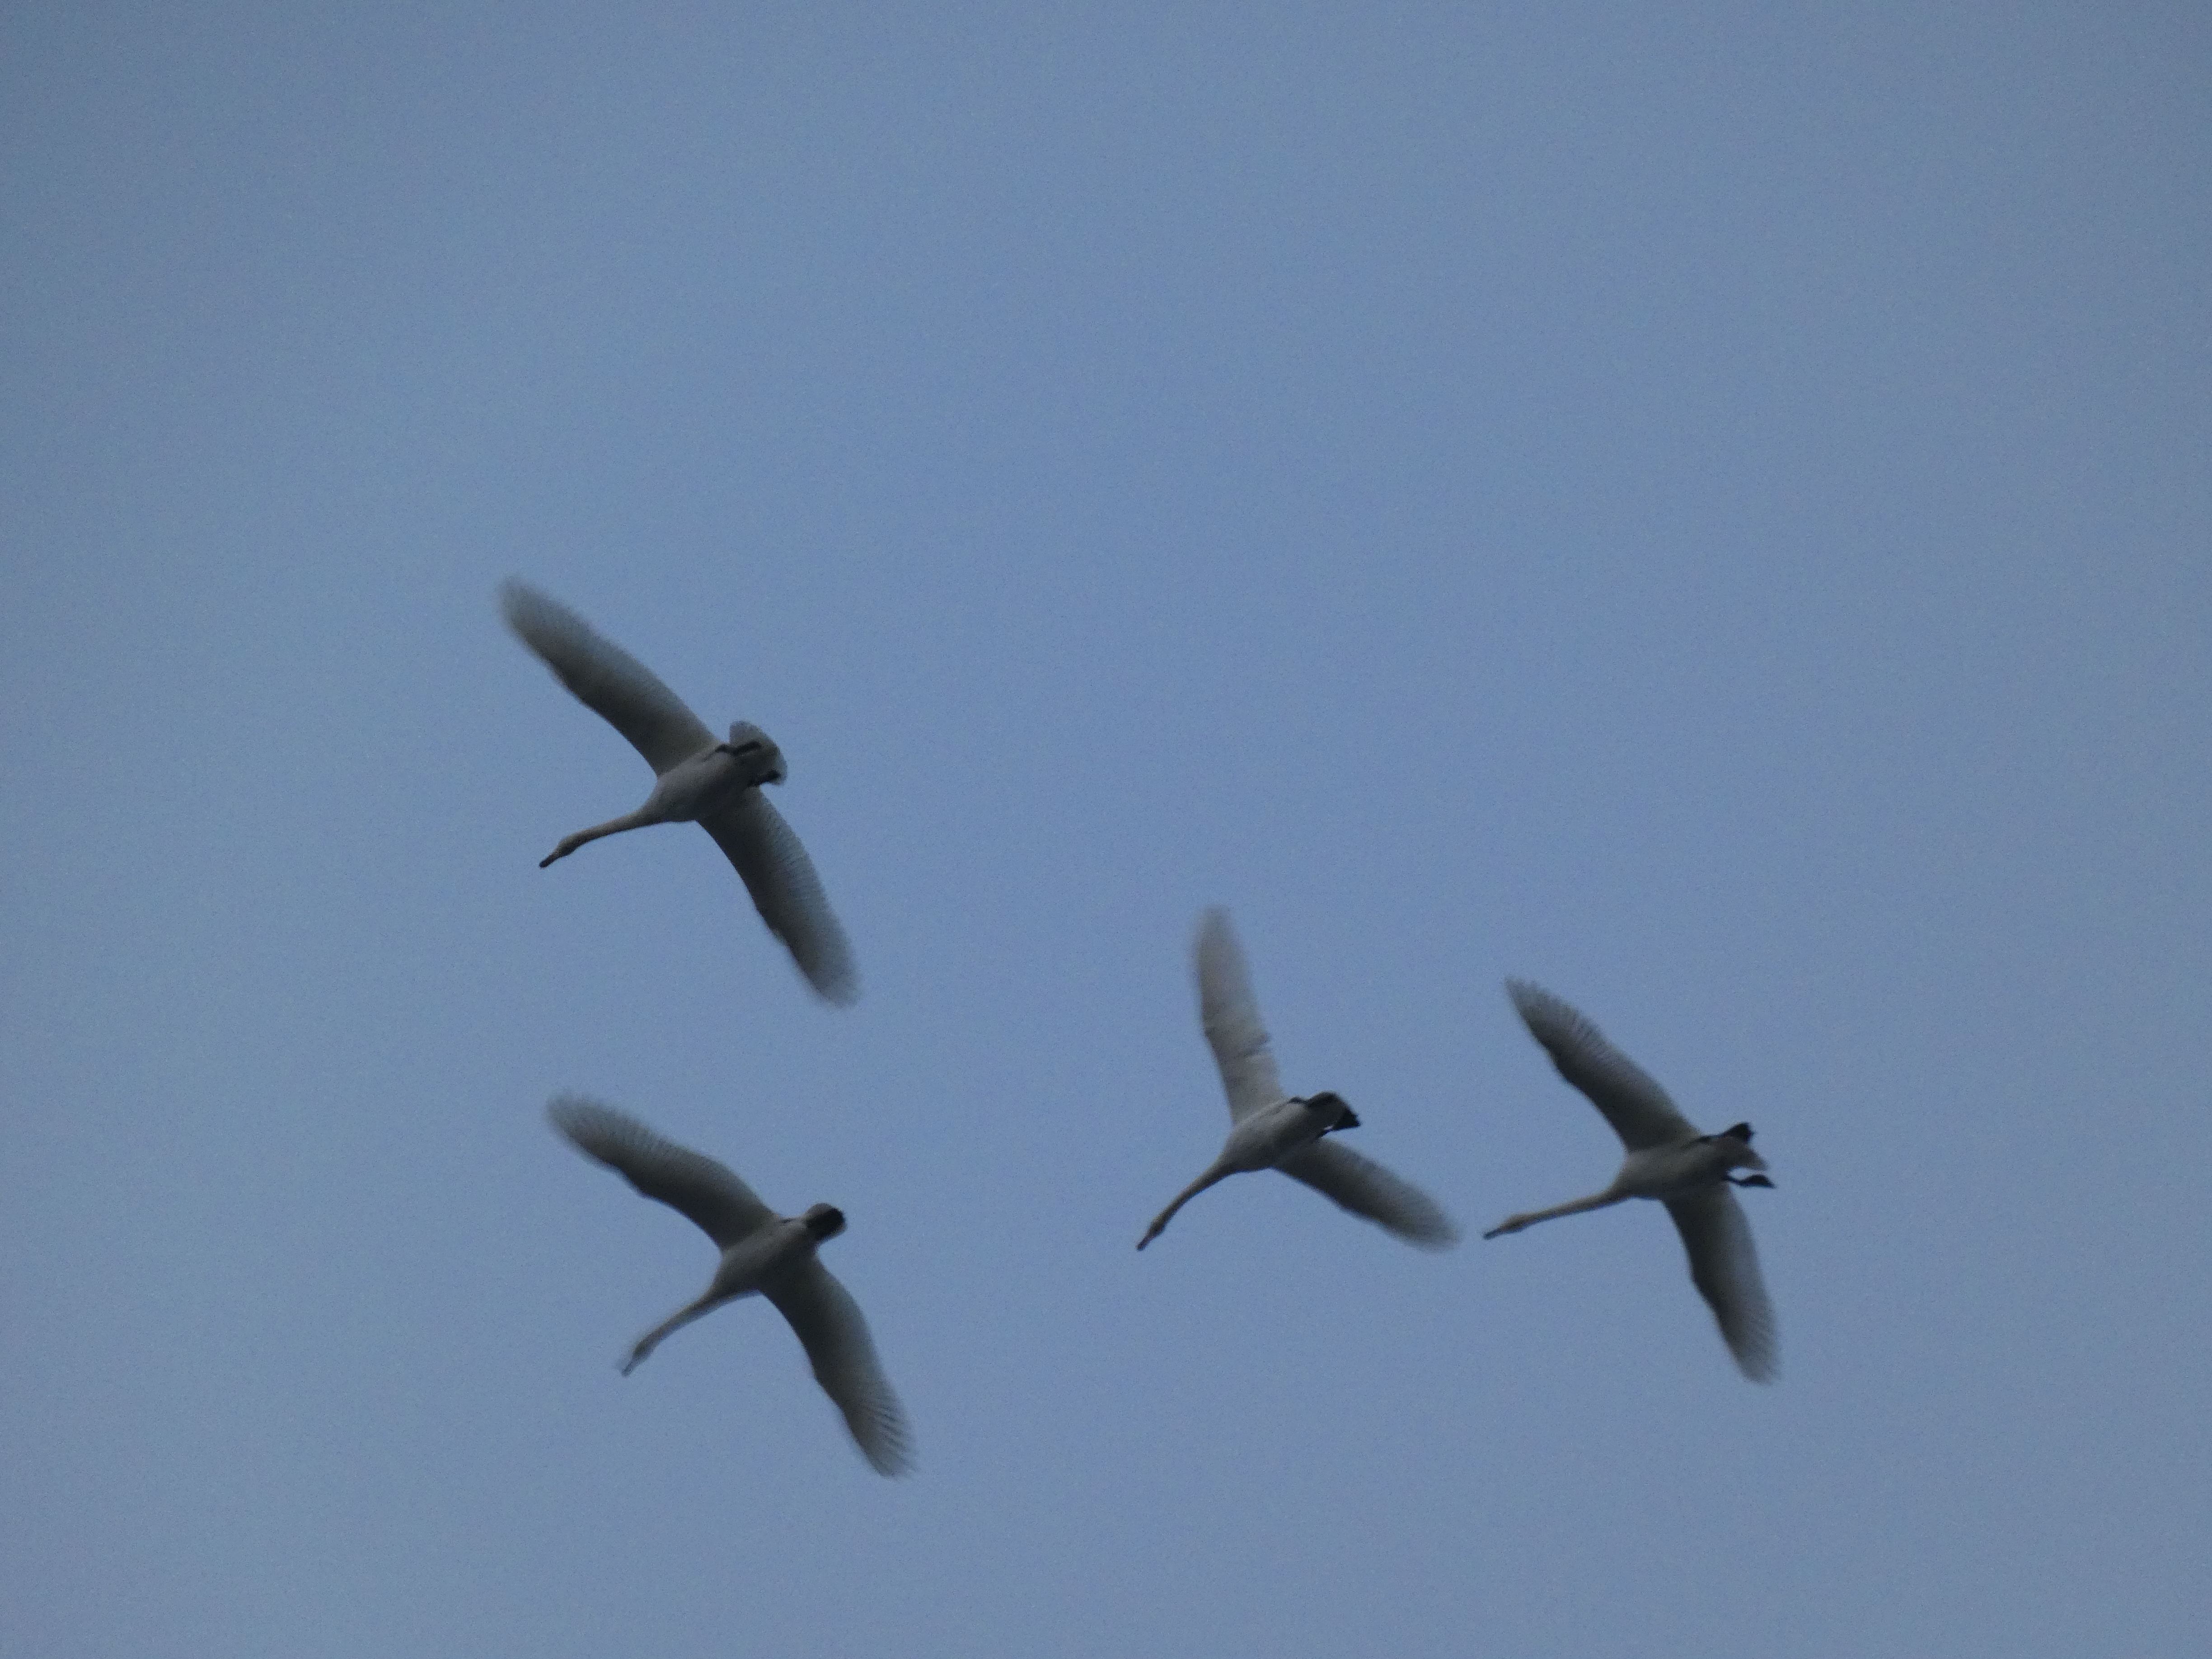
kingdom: Animalia
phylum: Chordata
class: Aves
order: Anseriformes
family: Anatidae
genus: Cygnus
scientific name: Cygnus cygnus
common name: Sangsvane
